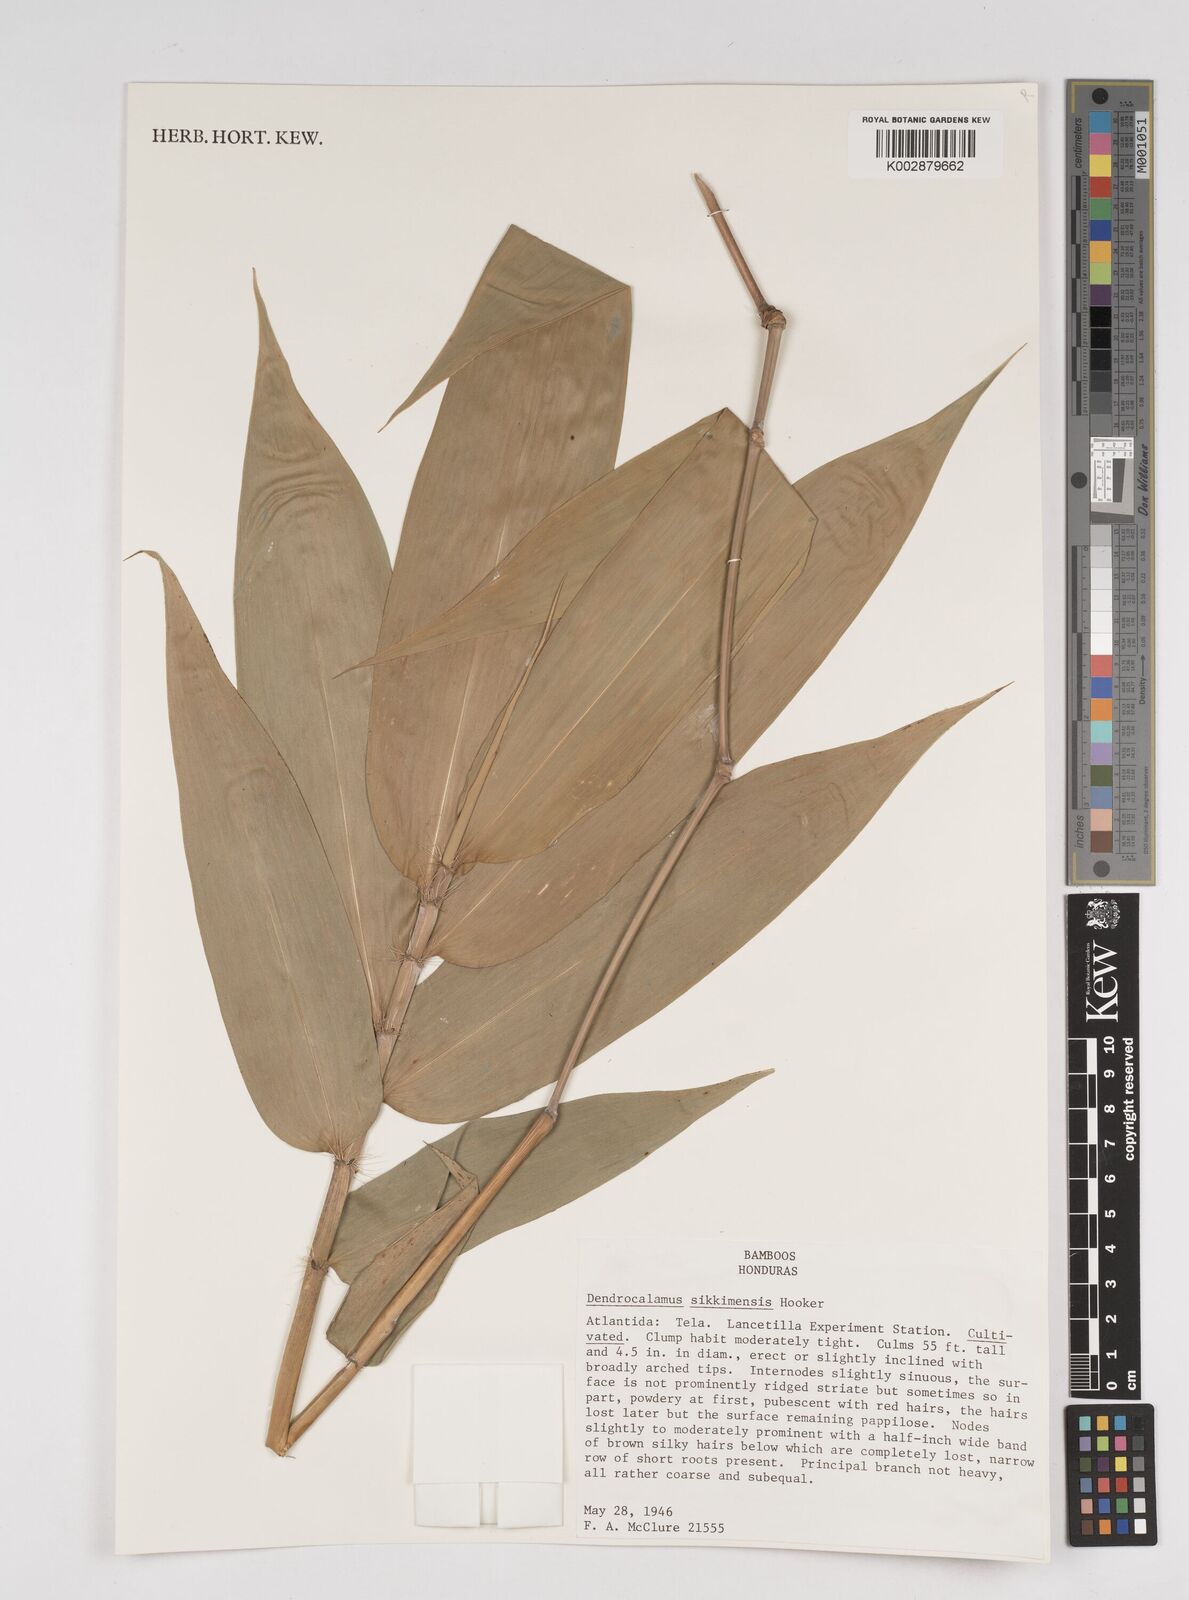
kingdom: Plantae
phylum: Tracheophyta
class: Liliopsida
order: Poales
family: Poaceae
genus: Dendrocalamus
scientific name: Dendrocalamus sikkimensis
